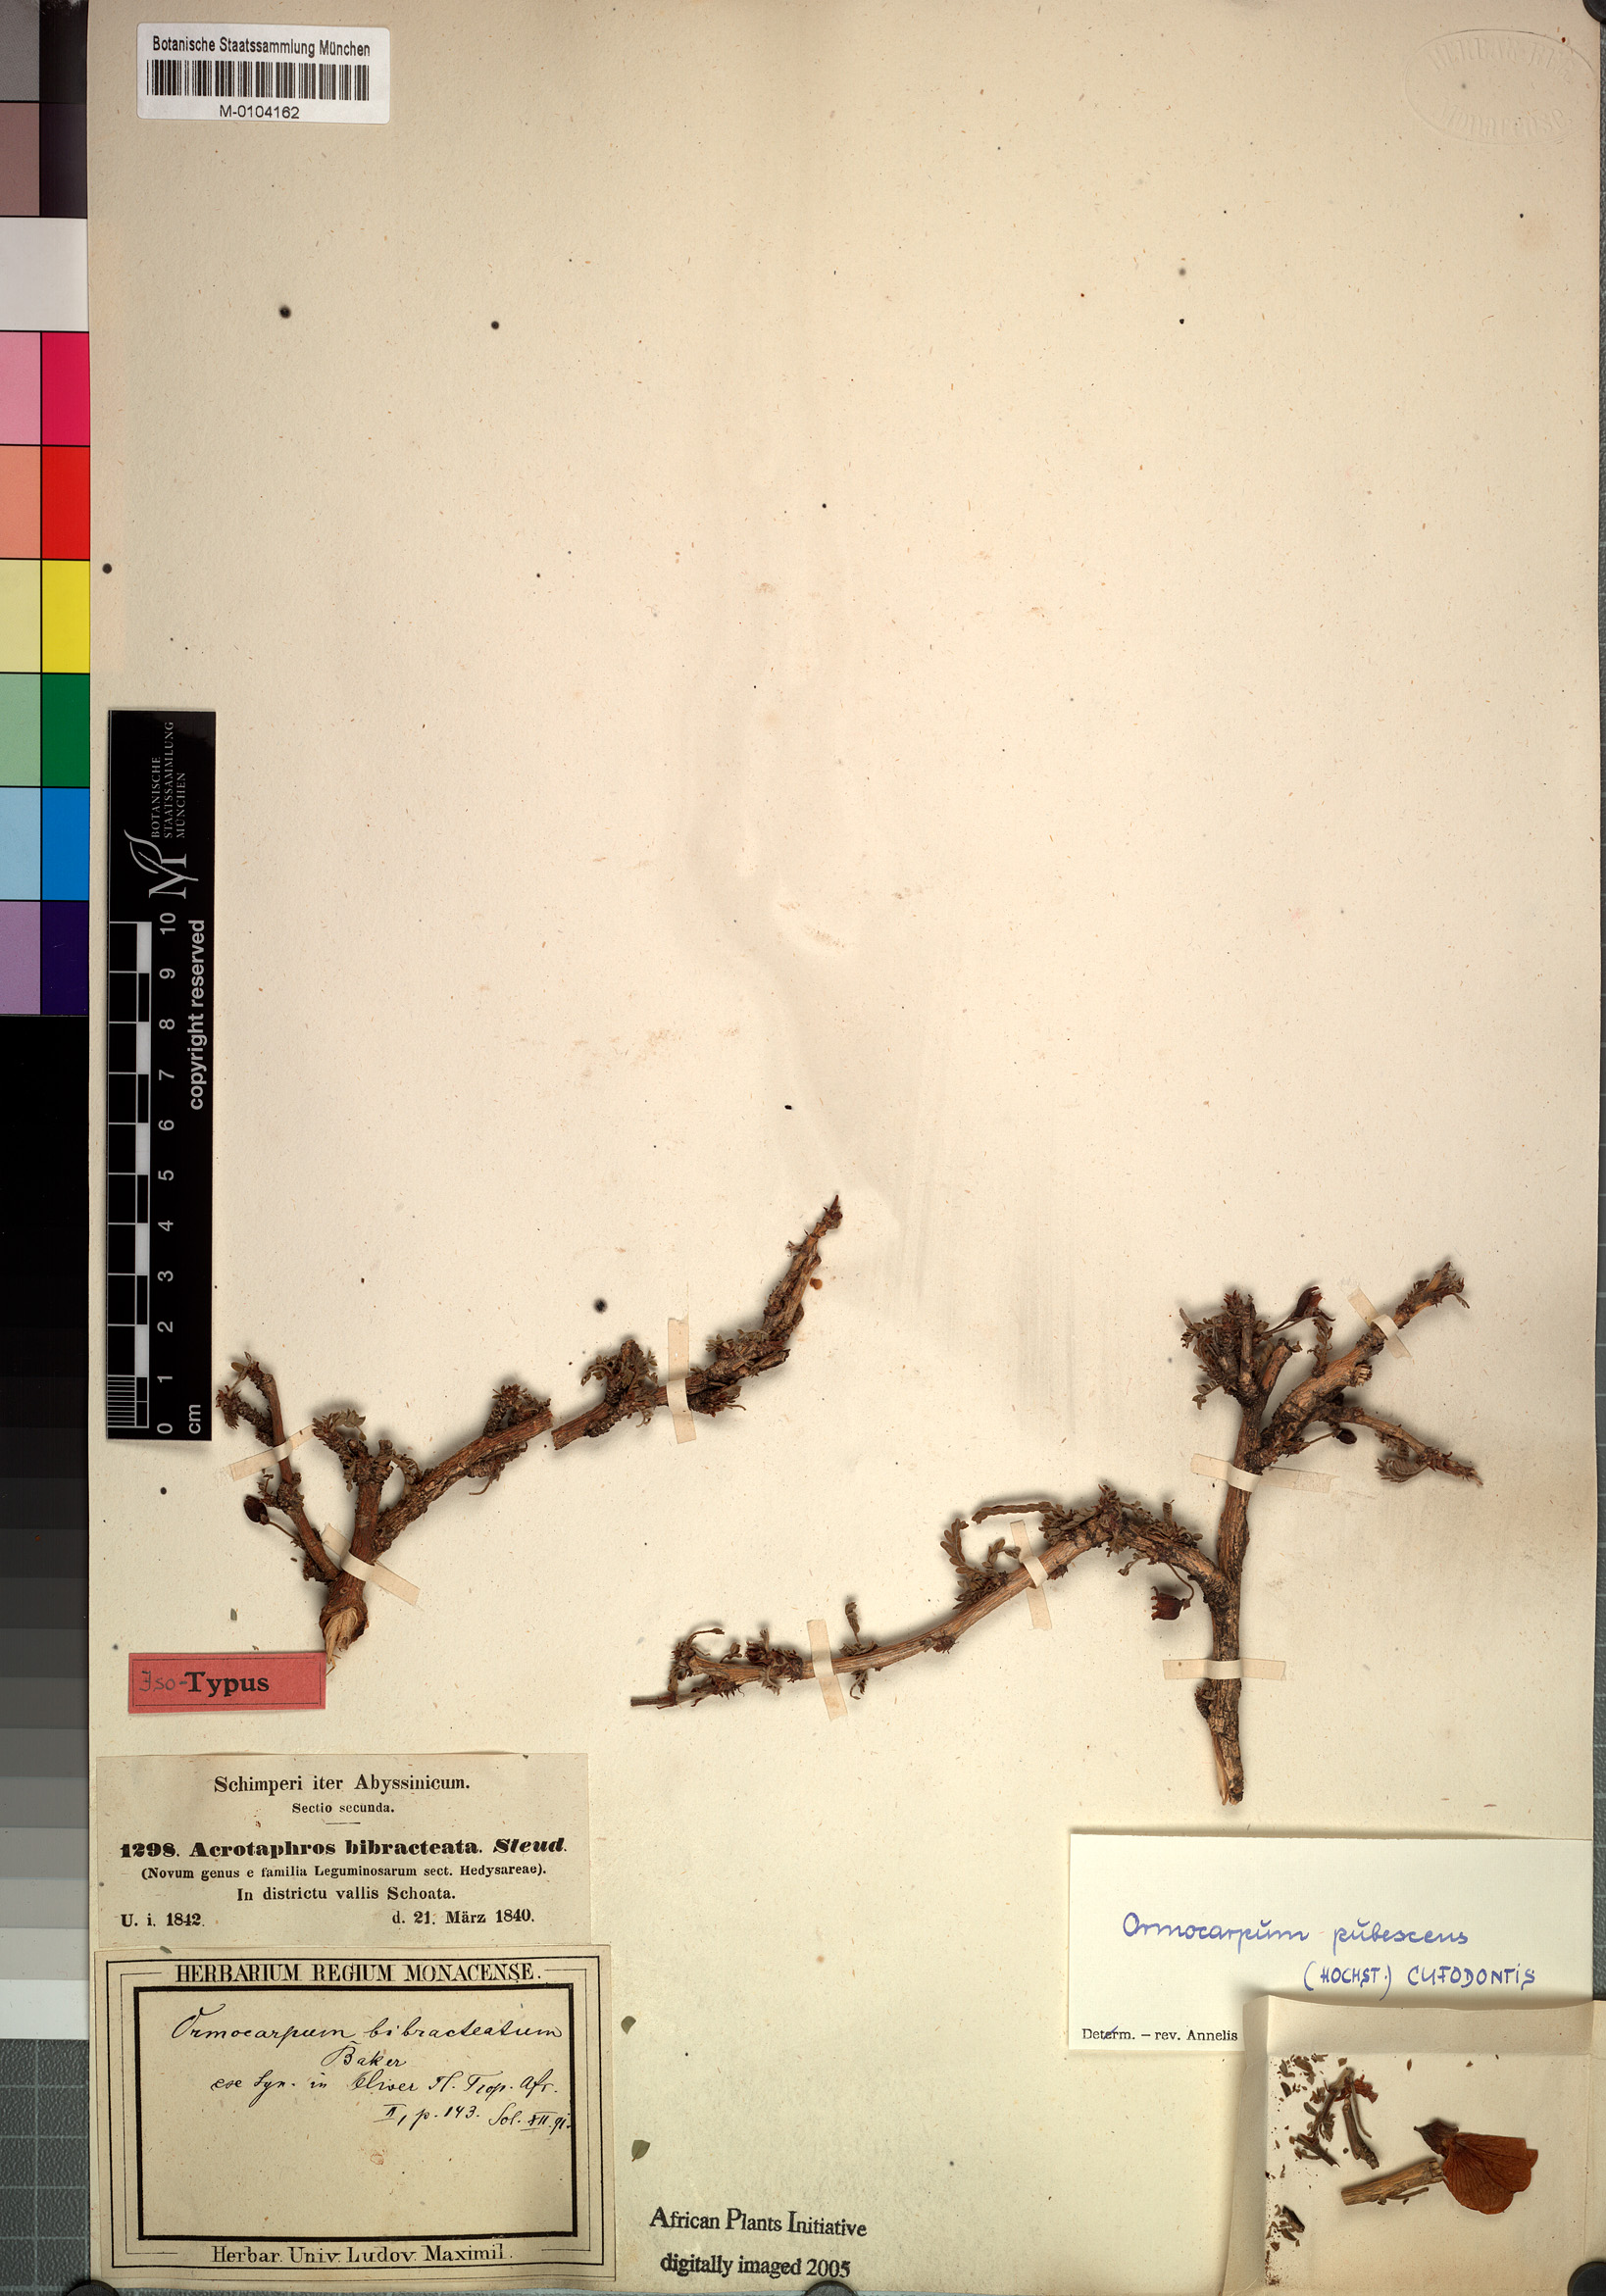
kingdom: Plantae
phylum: Tracheophyta
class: Magnoliopsida
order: Fabales
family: Fabaceae
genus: Ormocarpum
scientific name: Ormocarpum pubescens
